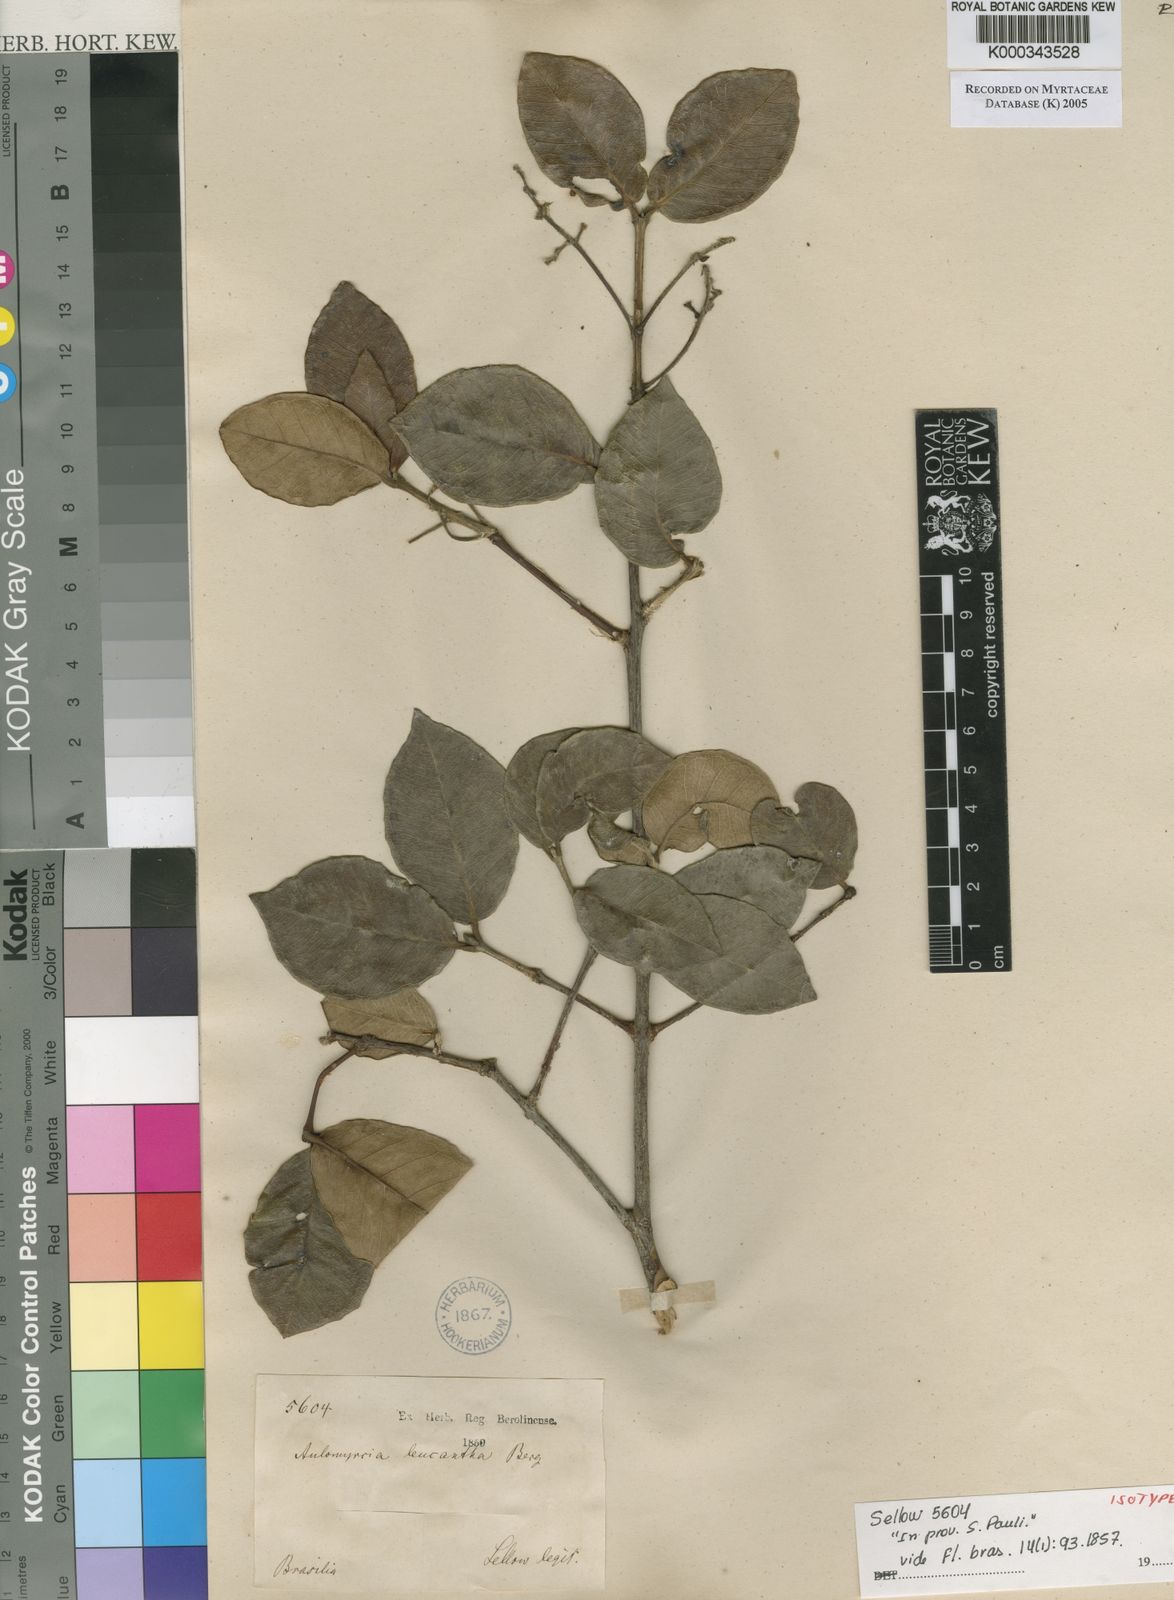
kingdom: Plantae
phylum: Tracheophyta
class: Magnoliopsida
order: Myrtales
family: Myrtaceae
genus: Myrcia
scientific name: Myrcia tomentosa
